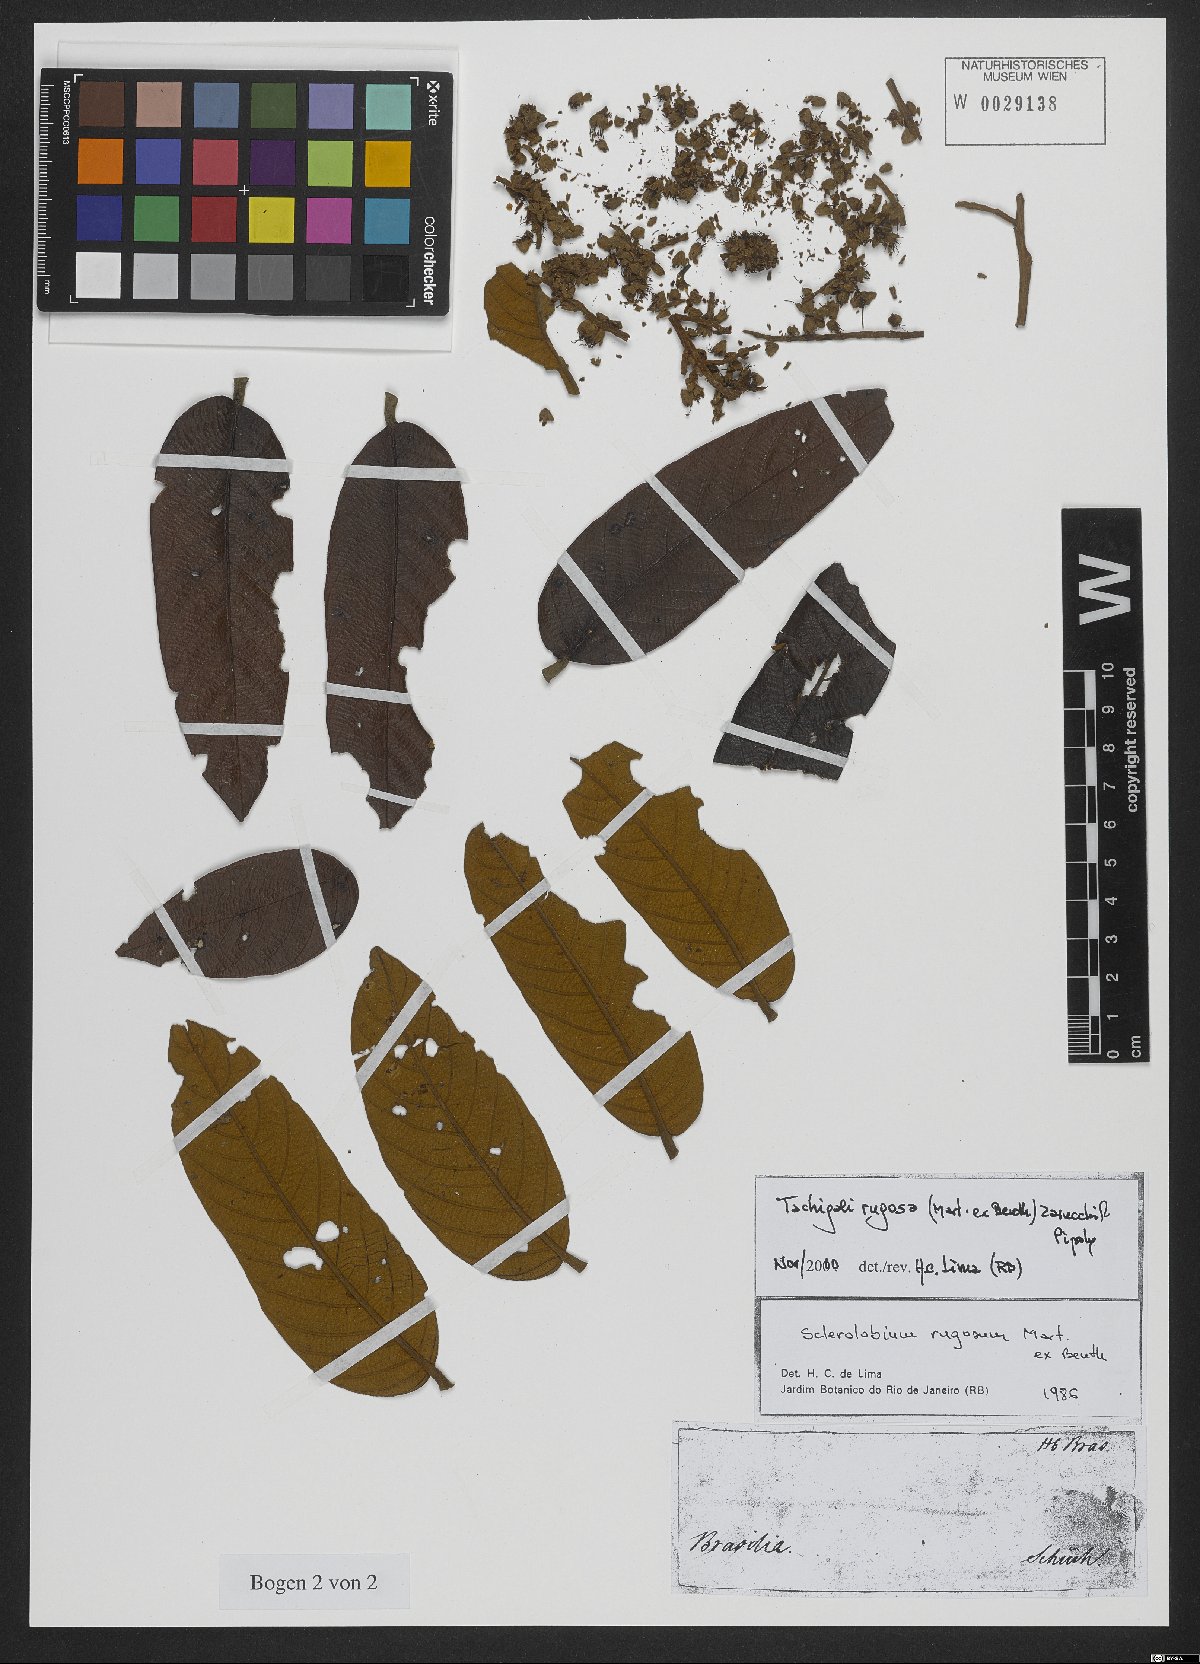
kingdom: Plantae
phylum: Tracheophyta
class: Magnoliopsida
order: Fabales
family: Fabaceae
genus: Tachigali
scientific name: Tachigali rugosa
